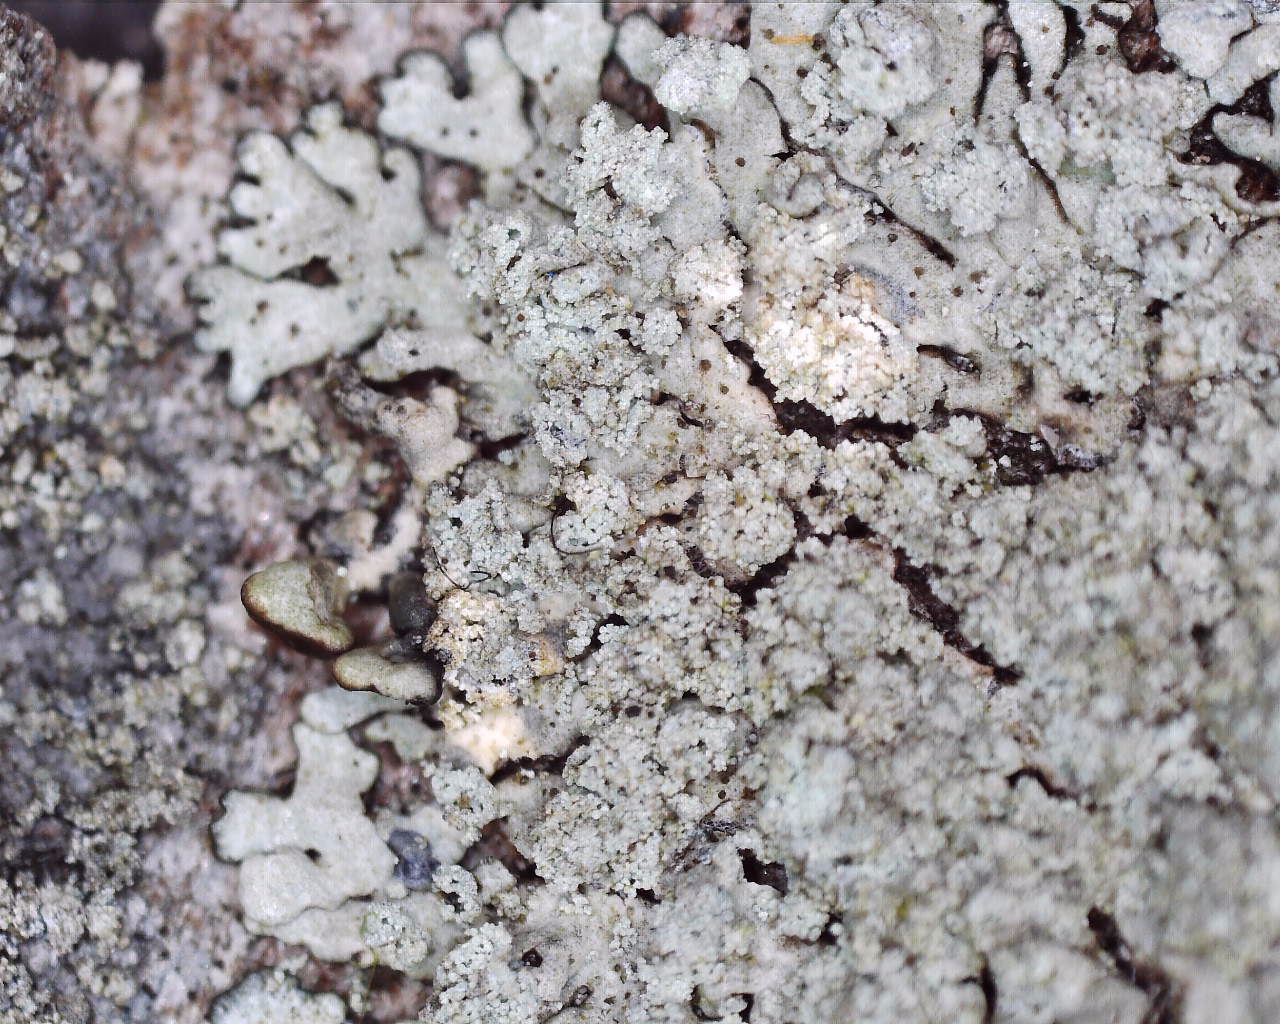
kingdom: Fungi
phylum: Ascomycota
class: Lecanoromycetes
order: Lecanorales
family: Parmeliaceae
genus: Parmeliopsis
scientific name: Parmeliopsis hyperopta
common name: grå stolpelav
